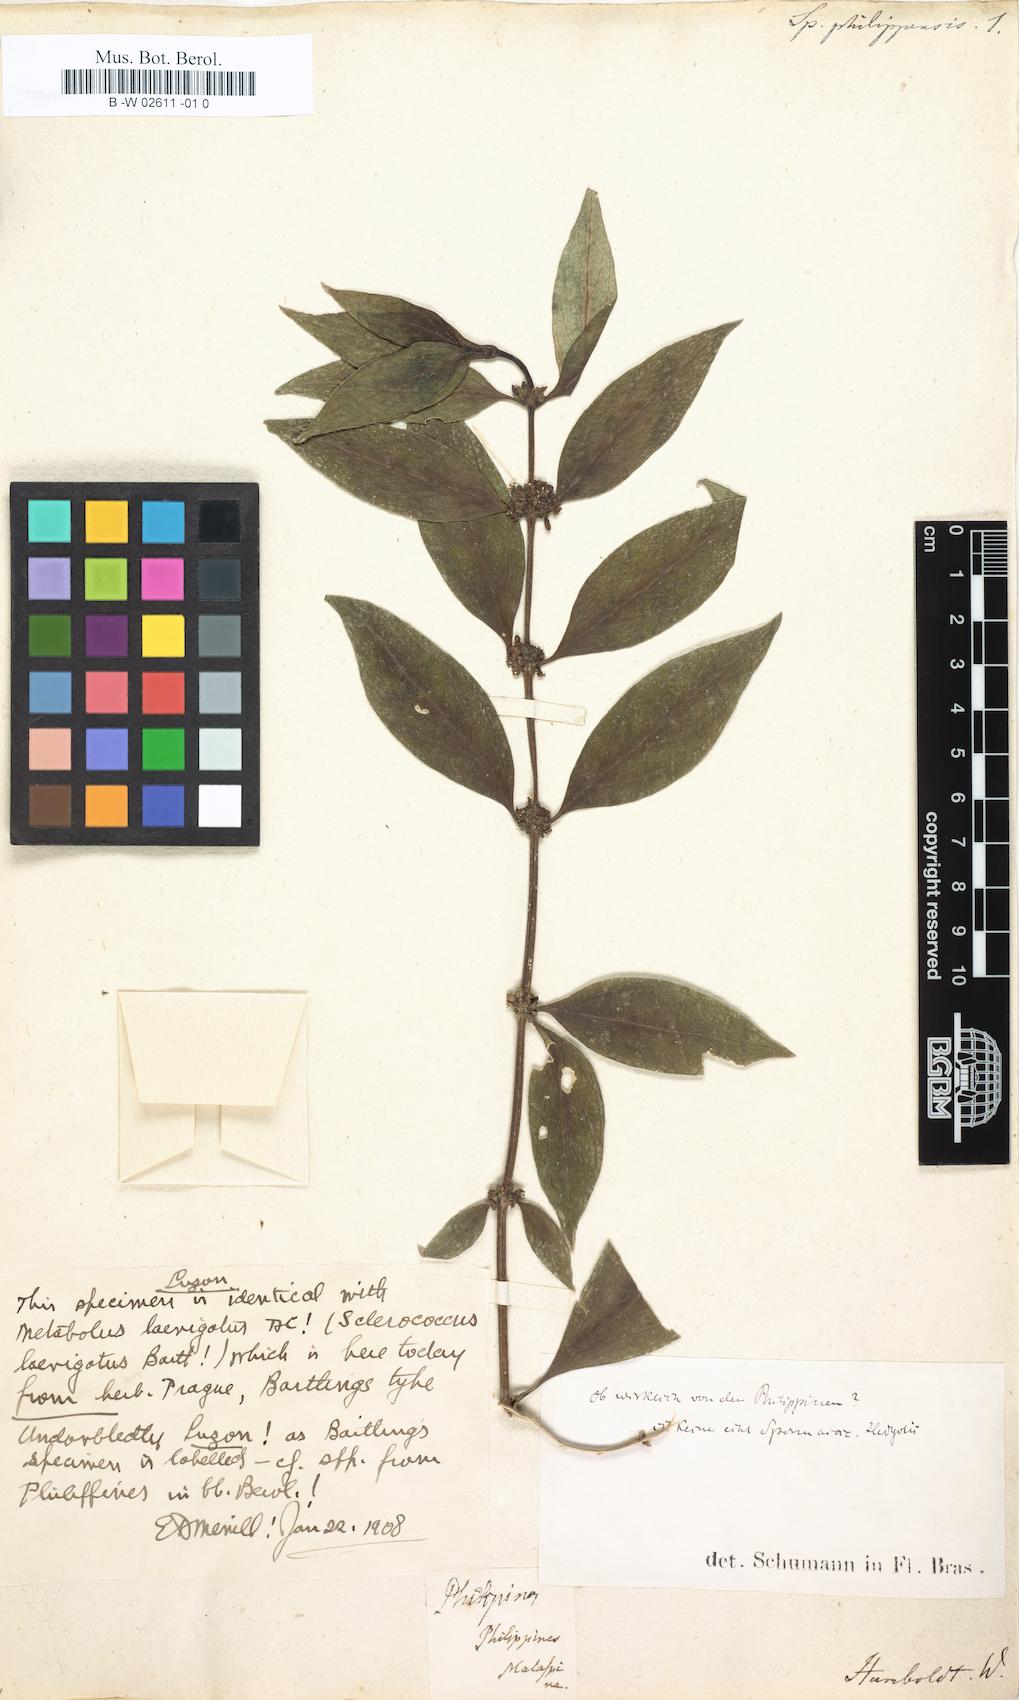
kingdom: Plantae
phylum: Tracheophyta
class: Magnoliopsida
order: Gentianales
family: Rubiaceae
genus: Hedyotis
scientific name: Hedyotis philippensis
